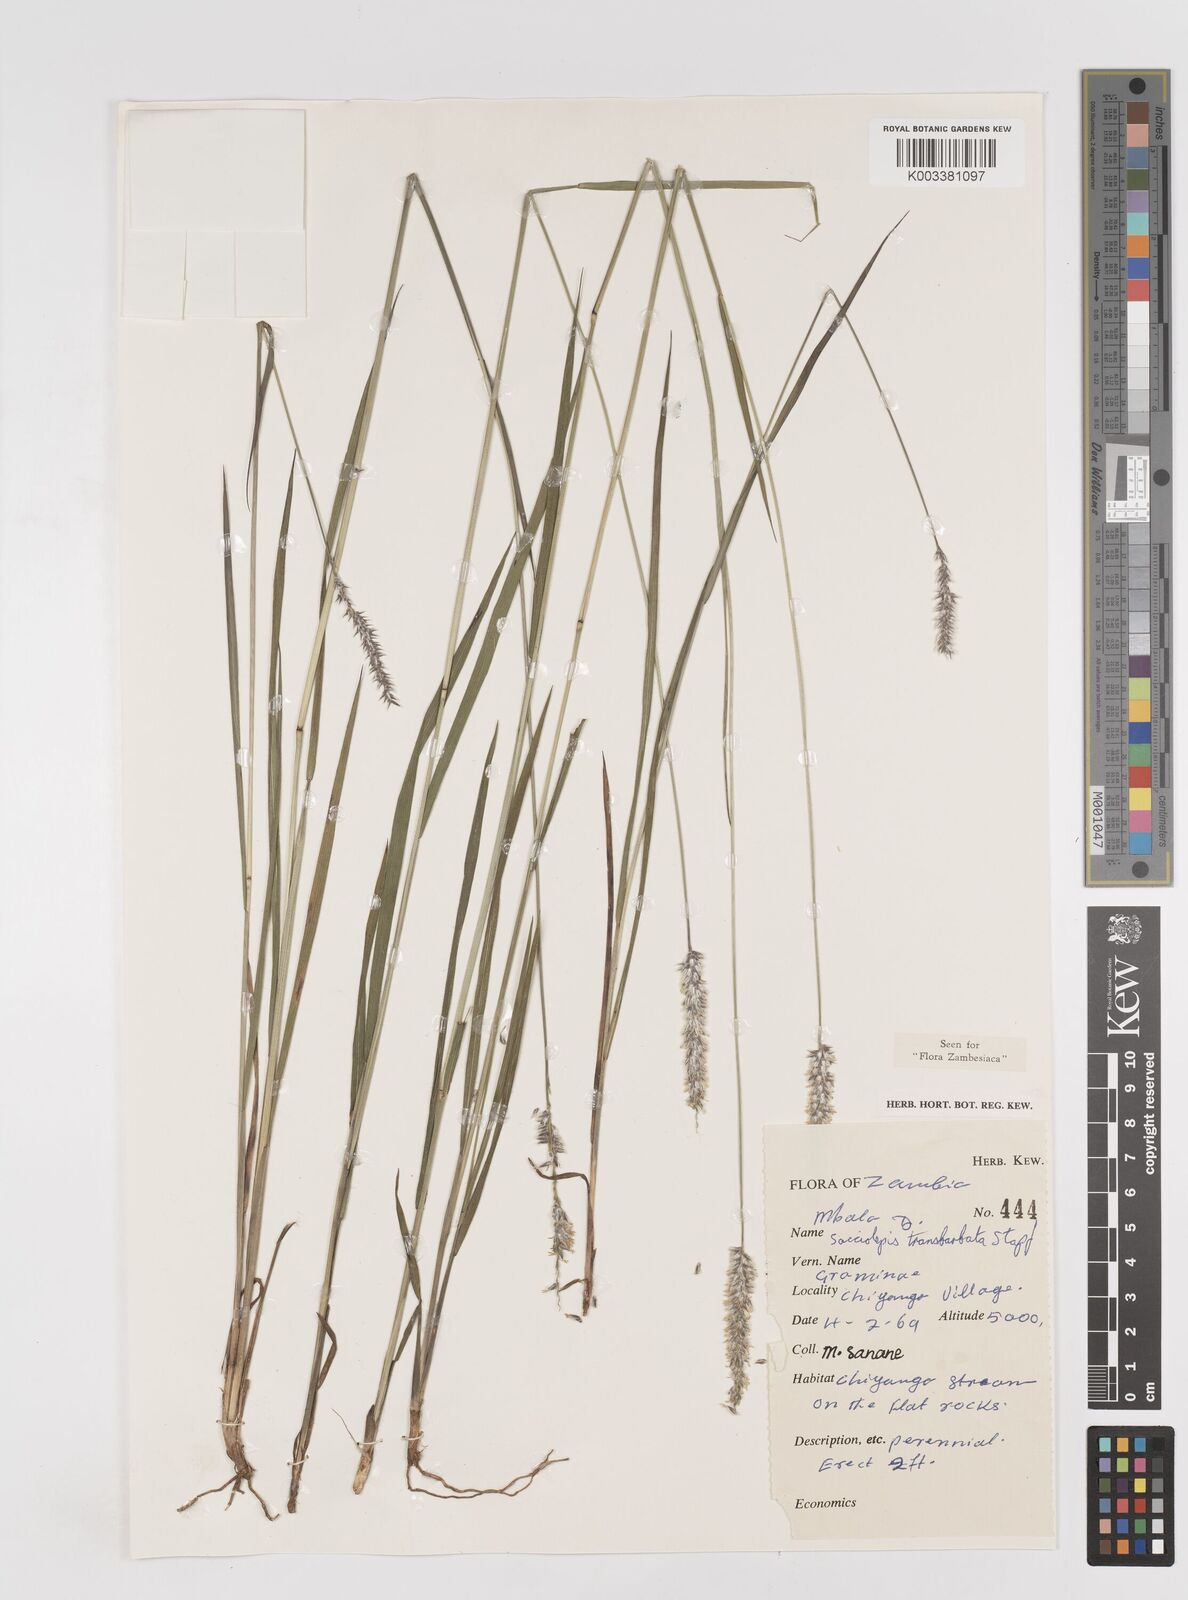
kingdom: Plantae
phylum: Tracheophyta
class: Liliopsida
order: Poales
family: Poaceae
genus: Sacciolepis
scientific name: Sacciolepis transbarbata
